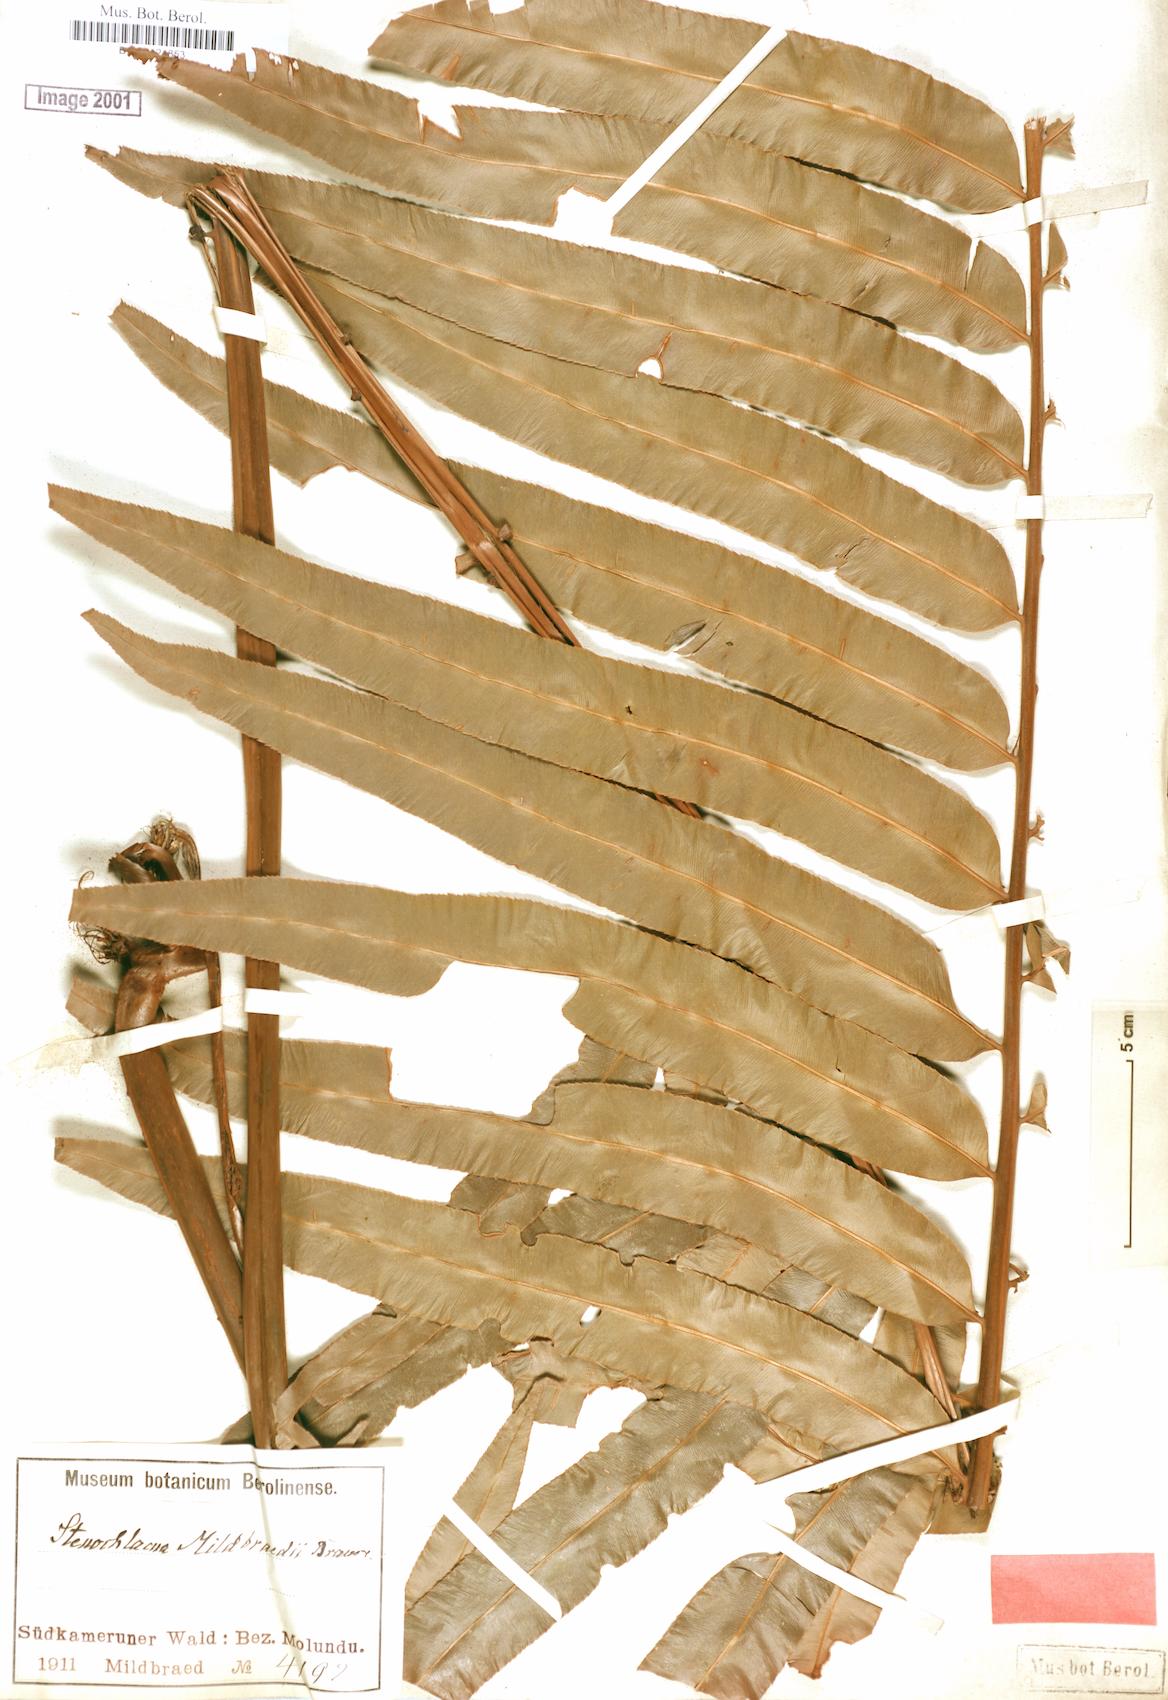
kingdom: Plantae
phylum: Tracheophyta
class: Polypodiopsida
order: Polypodiales
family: Blechnaceae
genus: Stenochlaena
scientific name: Stenochlaena tenuifolia
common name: Giant vine fern
